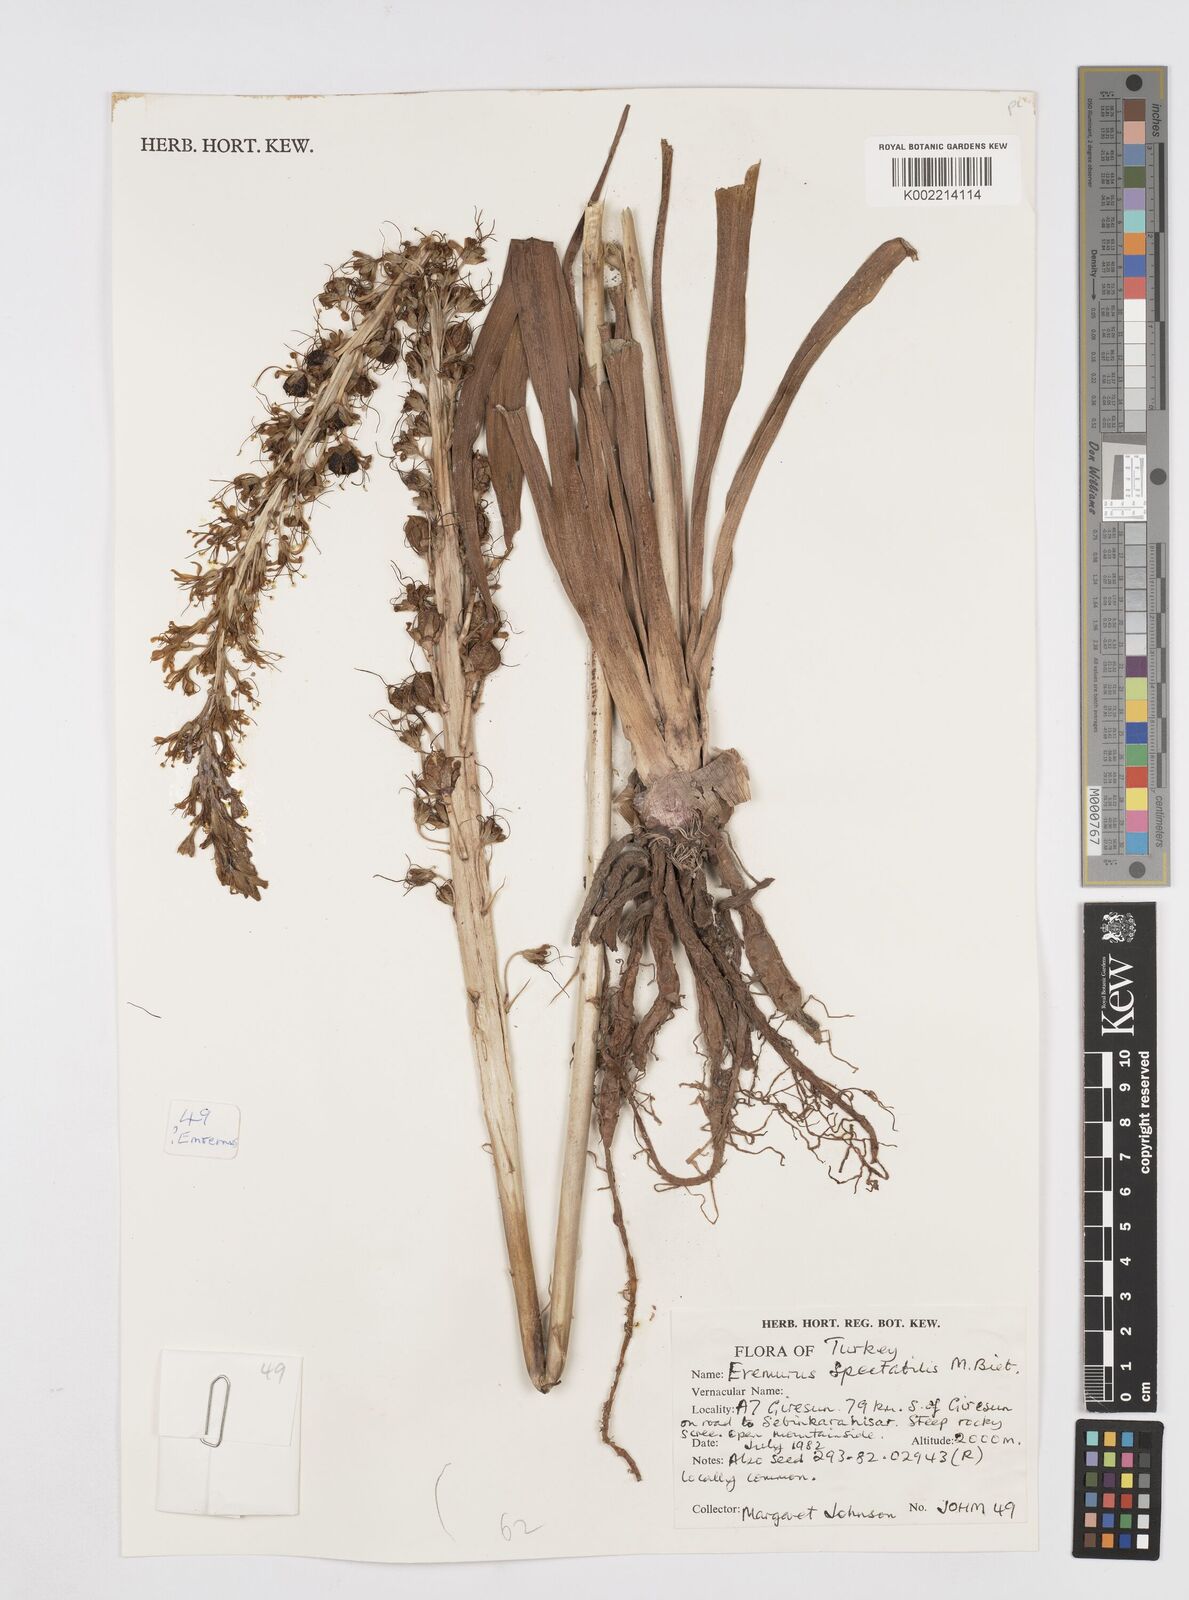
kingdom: Plantae
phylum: Tracheophyta
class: Liliopsida
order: Asparagales
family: Asphodelaceae
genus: Eremurus
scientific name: Eremurus spectabilis
